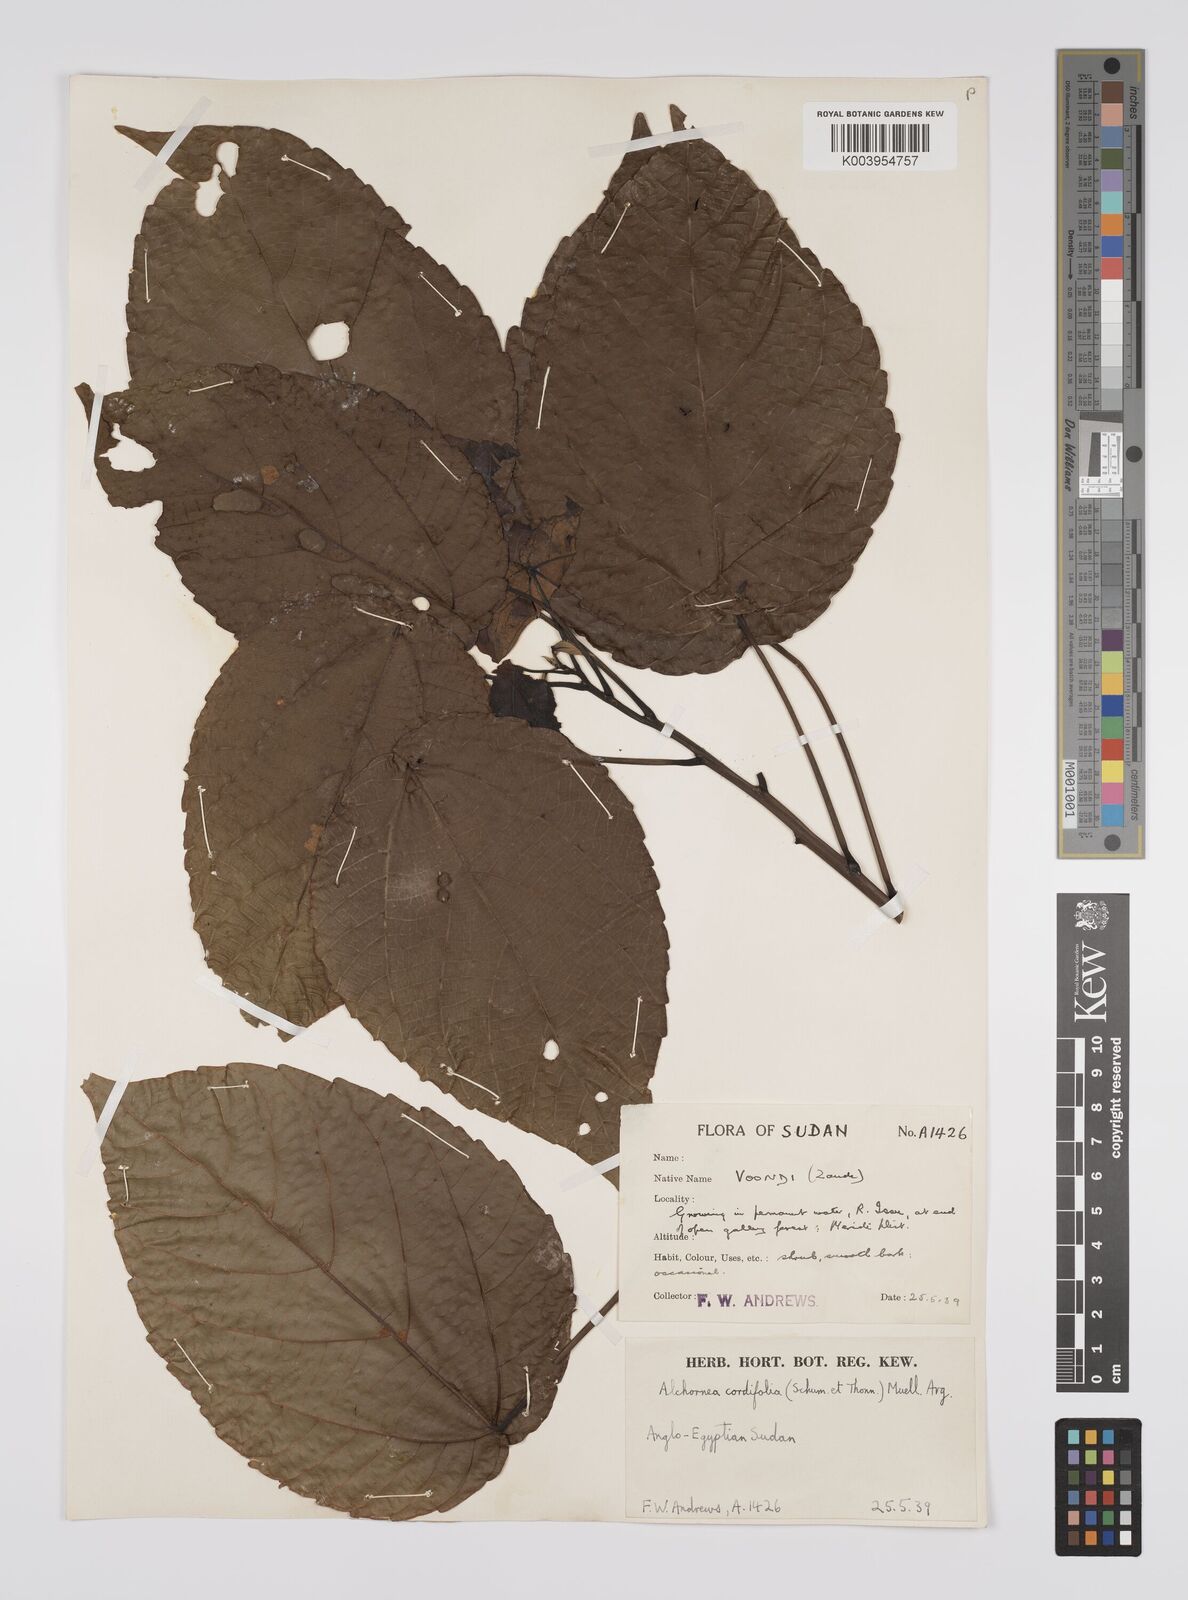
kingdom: Plantae
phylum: Tracheophyta
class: Magnoliopsida
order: Malpighiales
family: Euphorbiaceae
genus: Alchornea
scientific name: Alchornea cordifolia
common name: Christmasbush
